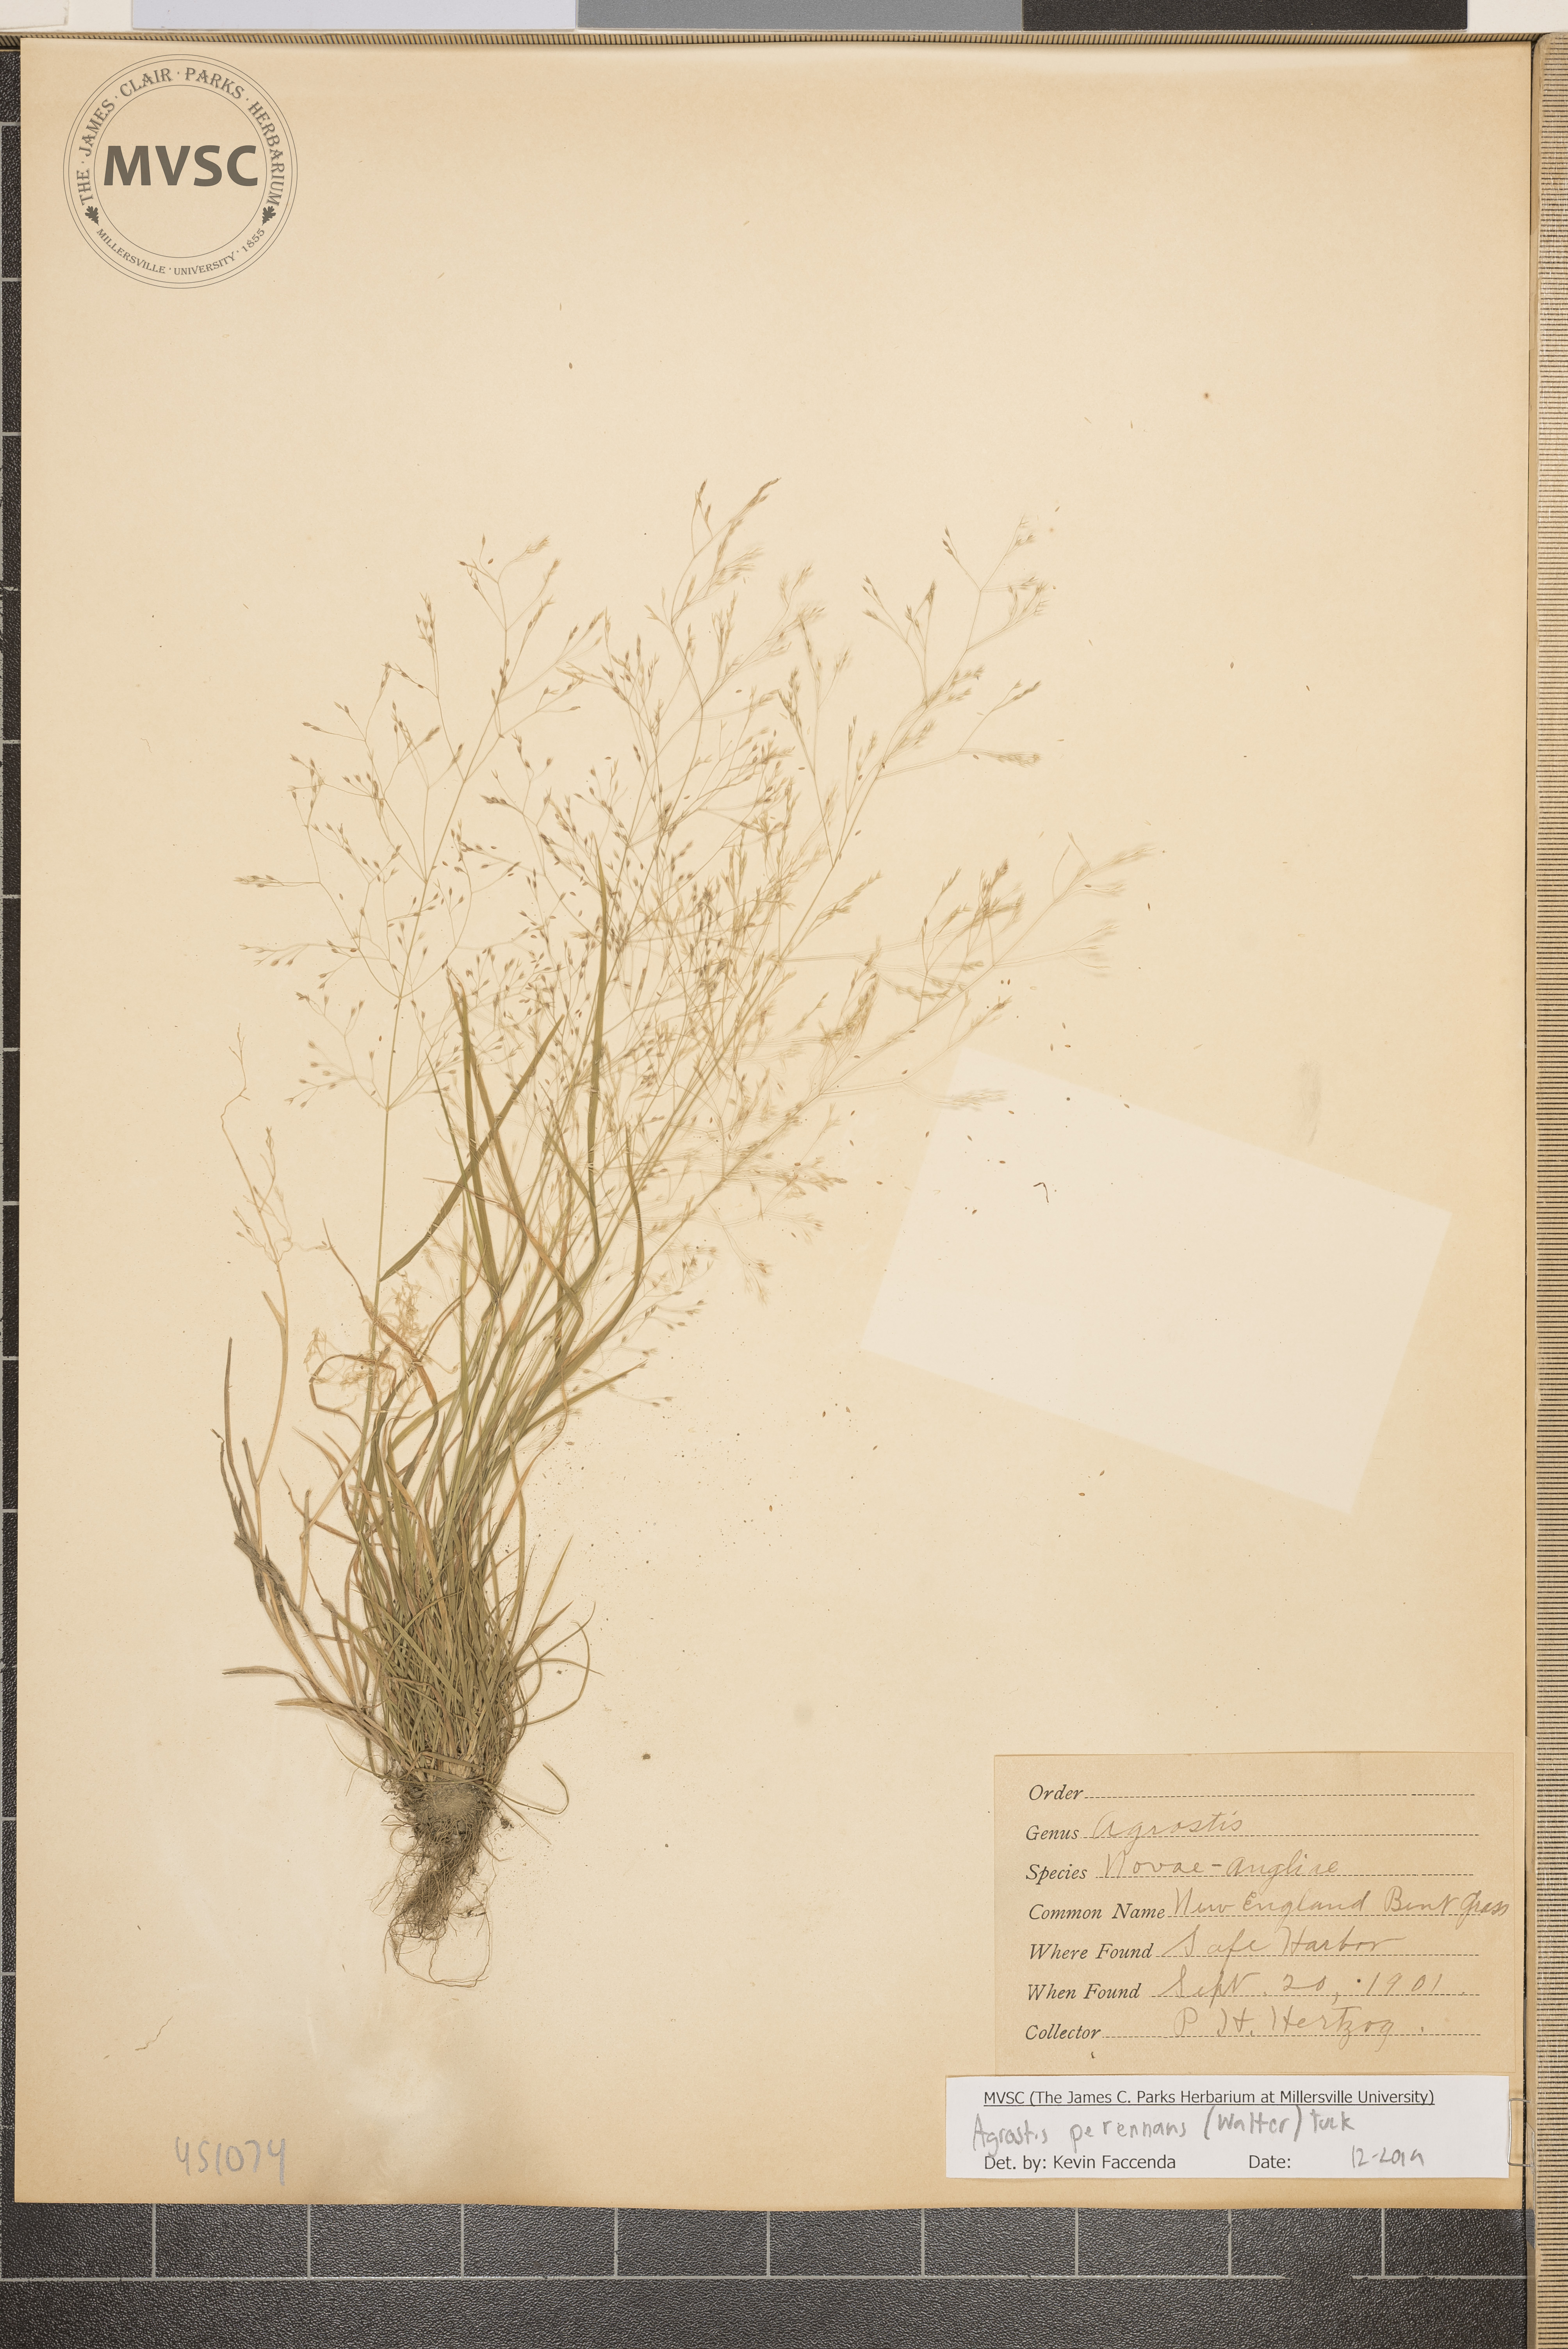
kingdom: Plantae
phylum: Tracheophyta
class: Liliopsida
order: Poales
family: Poaceae
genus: Agrostis
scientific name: Agrostis perennans
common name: Bent grass
